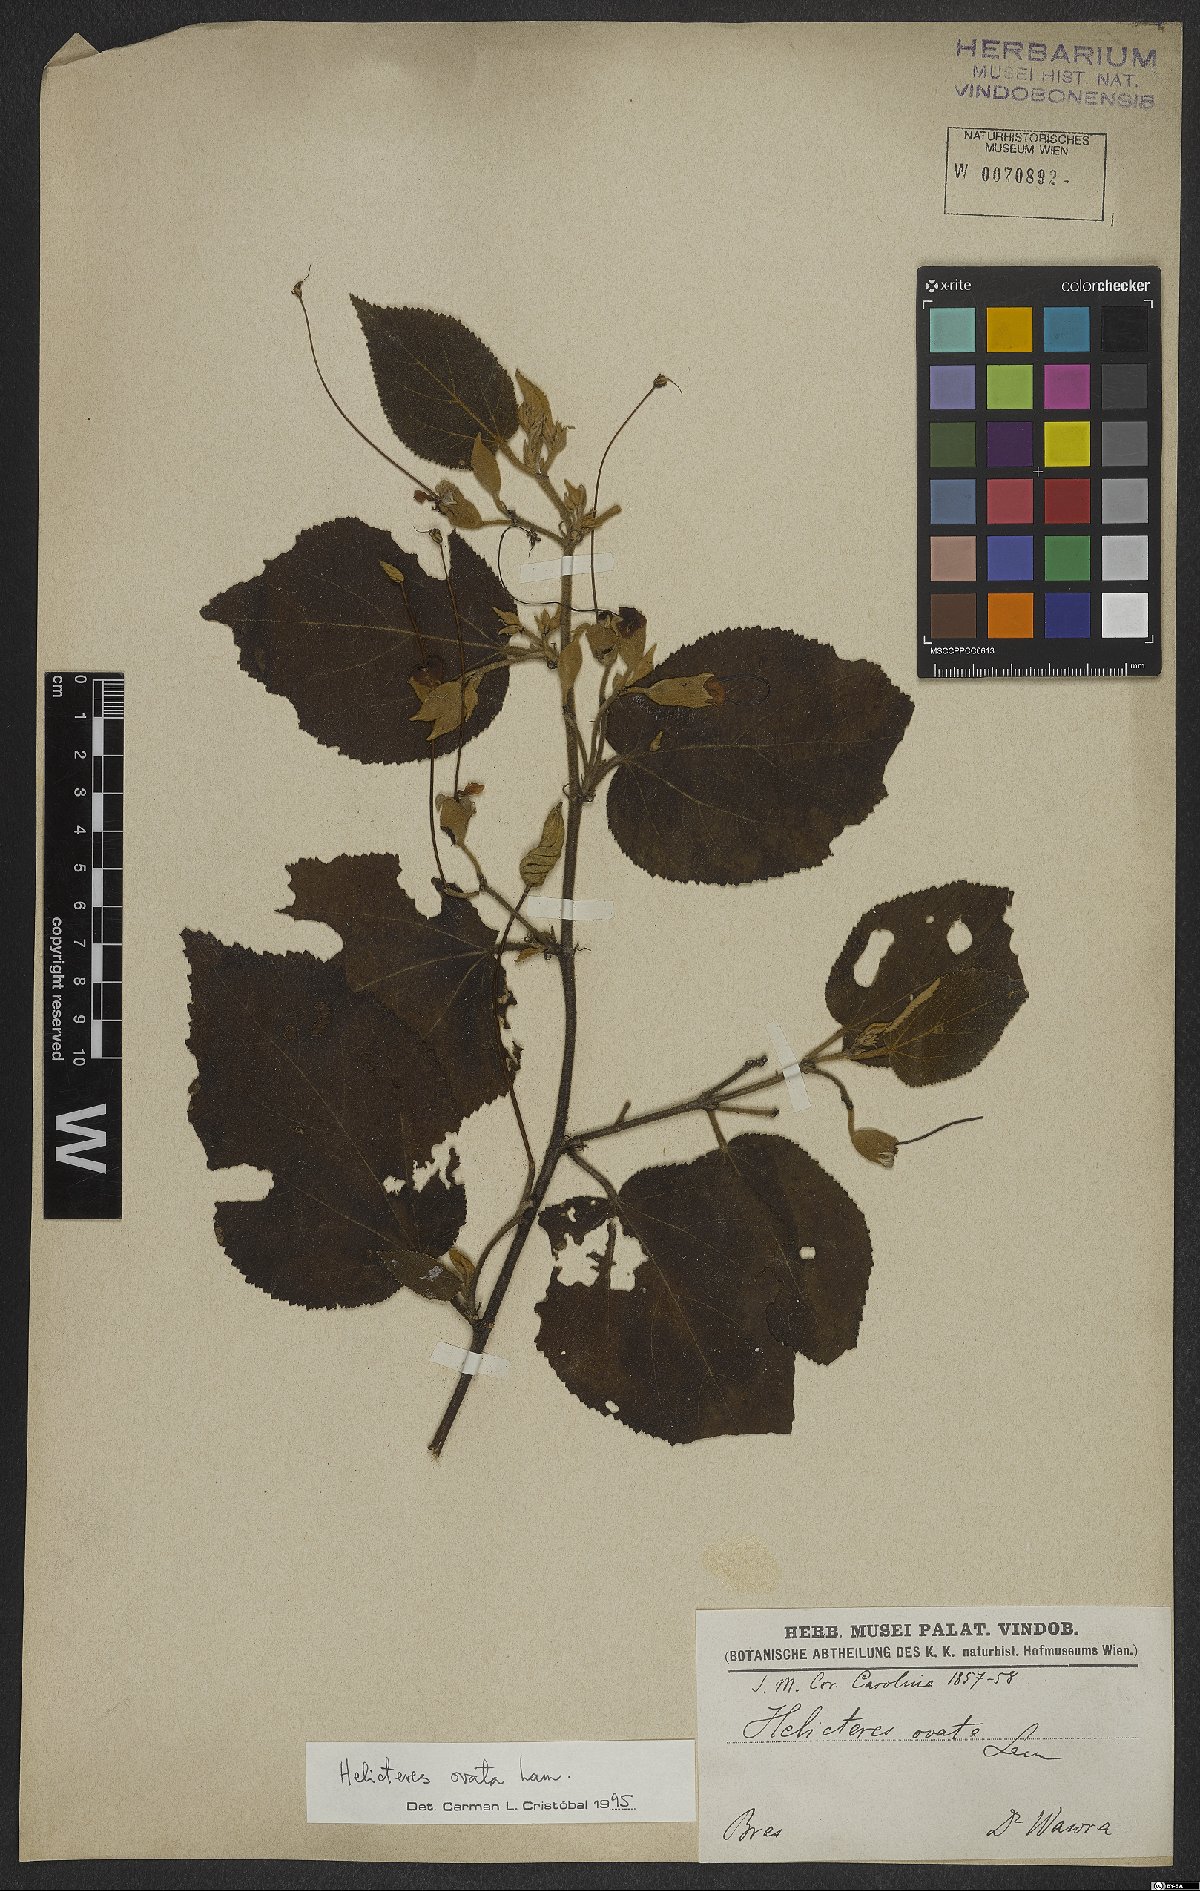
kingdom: Plantae
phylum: Tracheophyta
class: Magnoliopsida
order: Malvales
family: Malvaceae
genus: Helicteres
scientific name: Helicteres ovata
